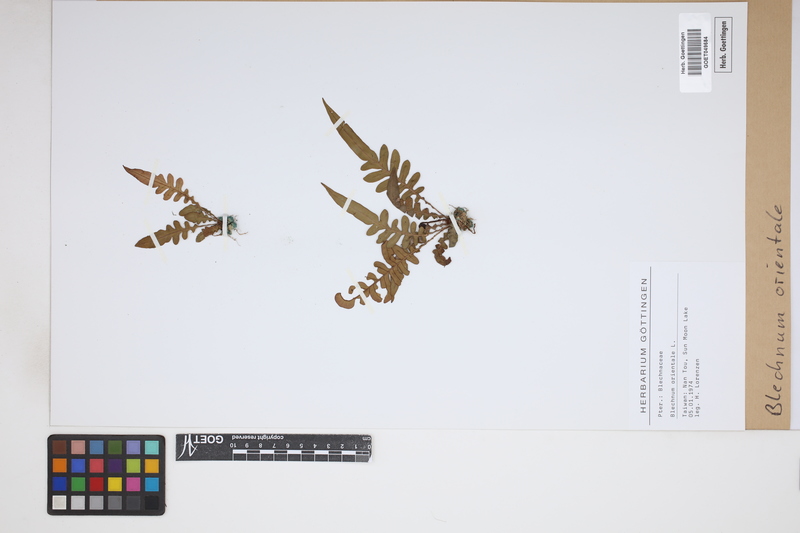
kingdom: Plantae
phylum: Tracheophyta
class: Polypodiopsida
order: Polypodiales
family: Blechnaceae
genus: Blechnopsis
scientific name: Blechnopsis orientalis
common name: Oriental blechnum
